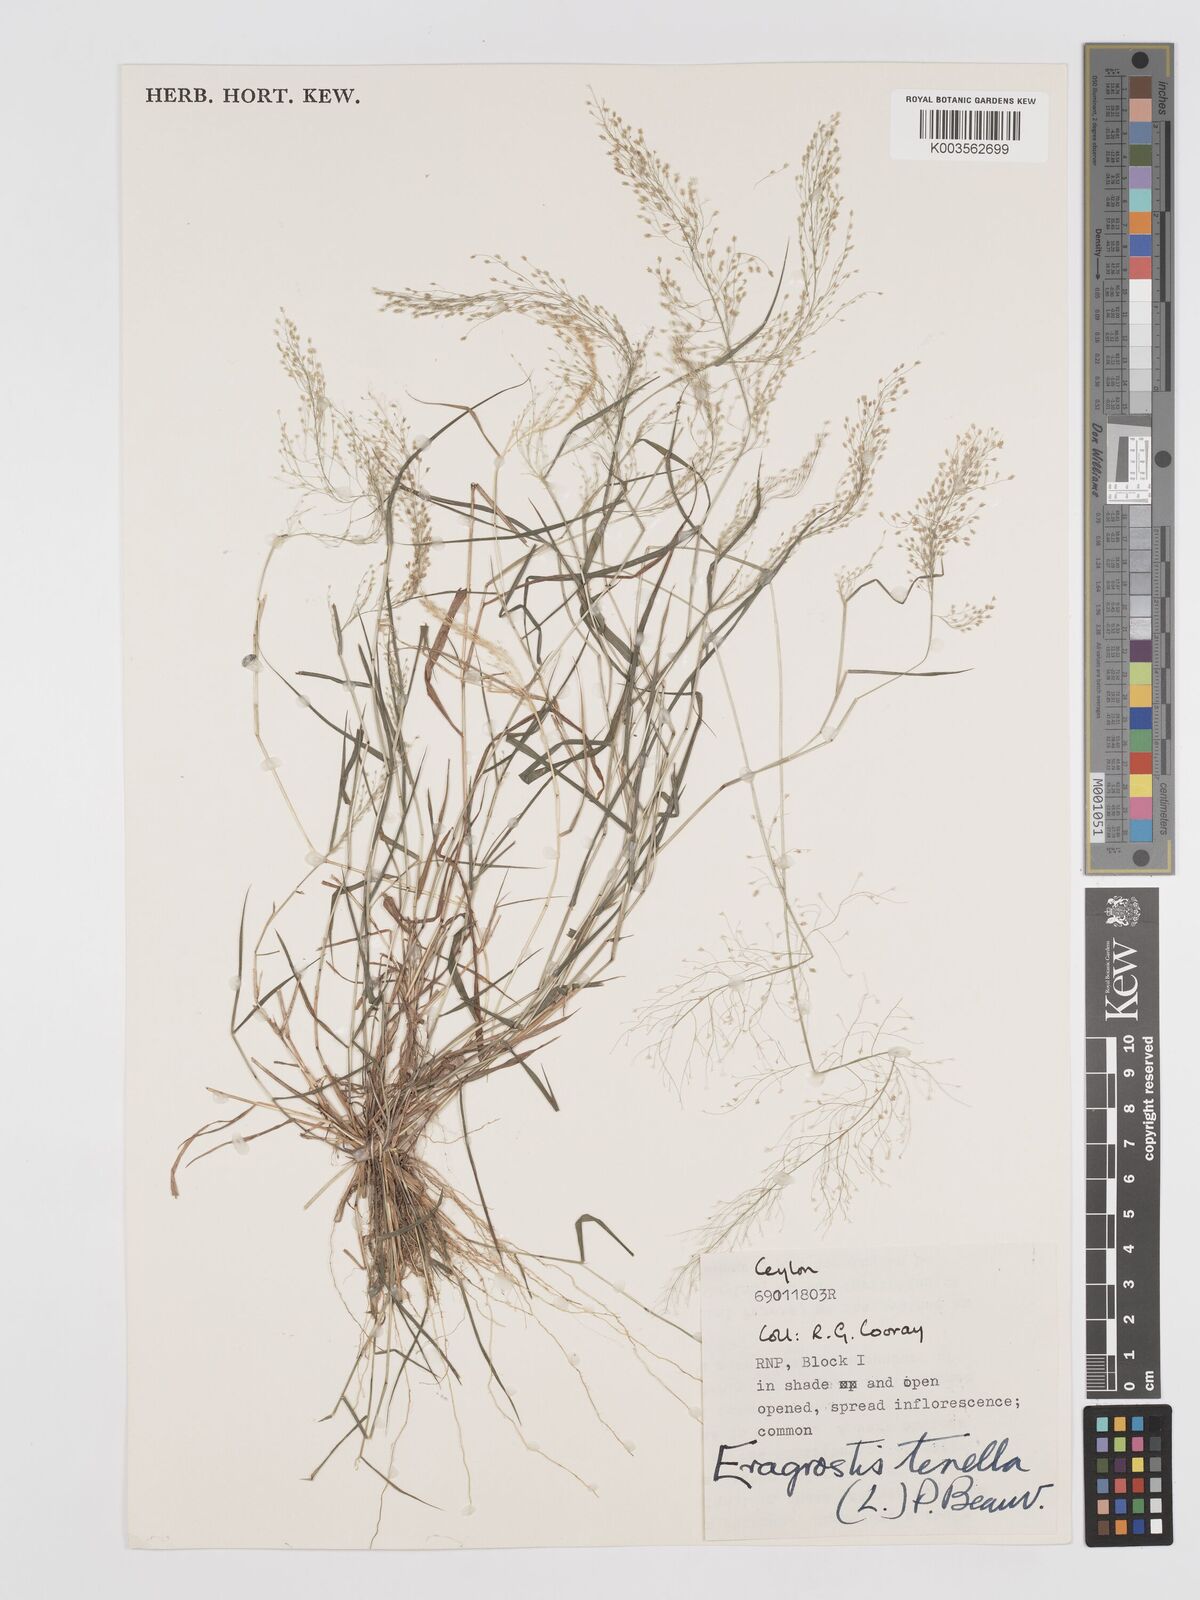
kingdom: Plantae
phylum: Tracheophyta
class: Liliopsida
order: Poales
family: Poaceae
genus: Eragrostis
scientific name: Eragrostis tenella
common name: Japanese lovegrass
